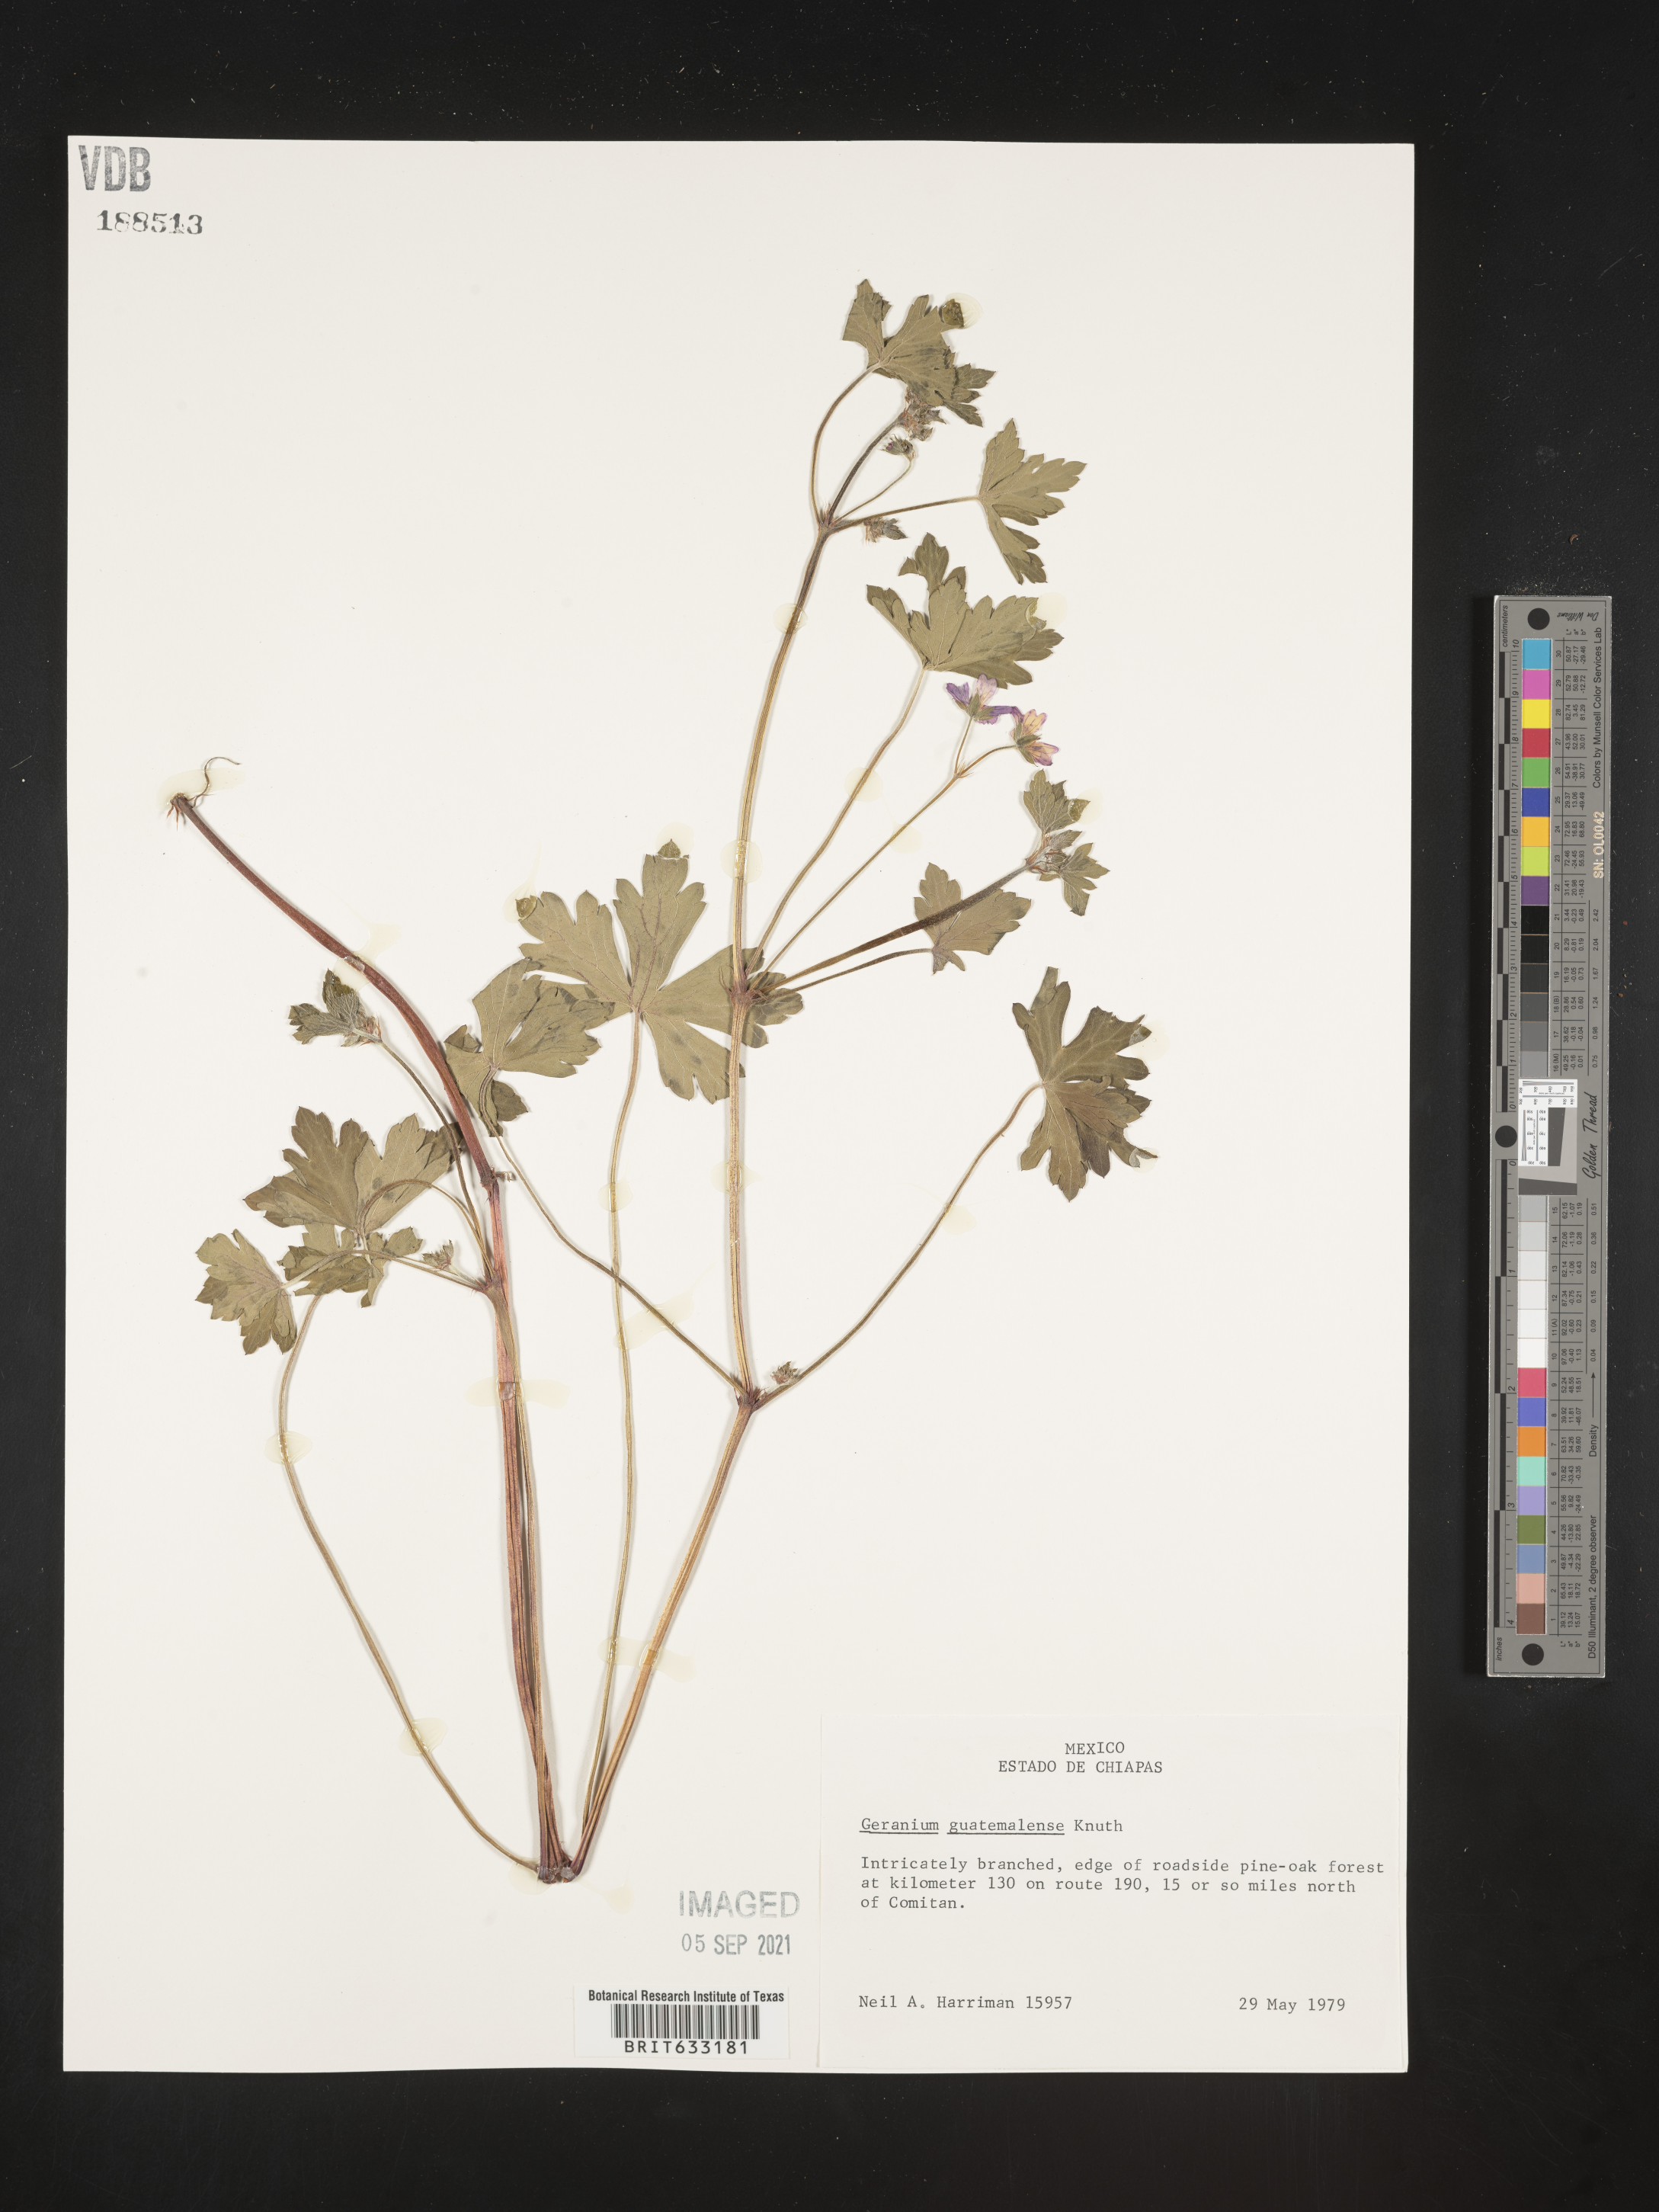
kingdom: Plantae
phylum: Tracheophyta
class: Magnoliopsida
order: Geraniales
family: Geraniaceae
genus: Geranium
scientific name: Geranium
